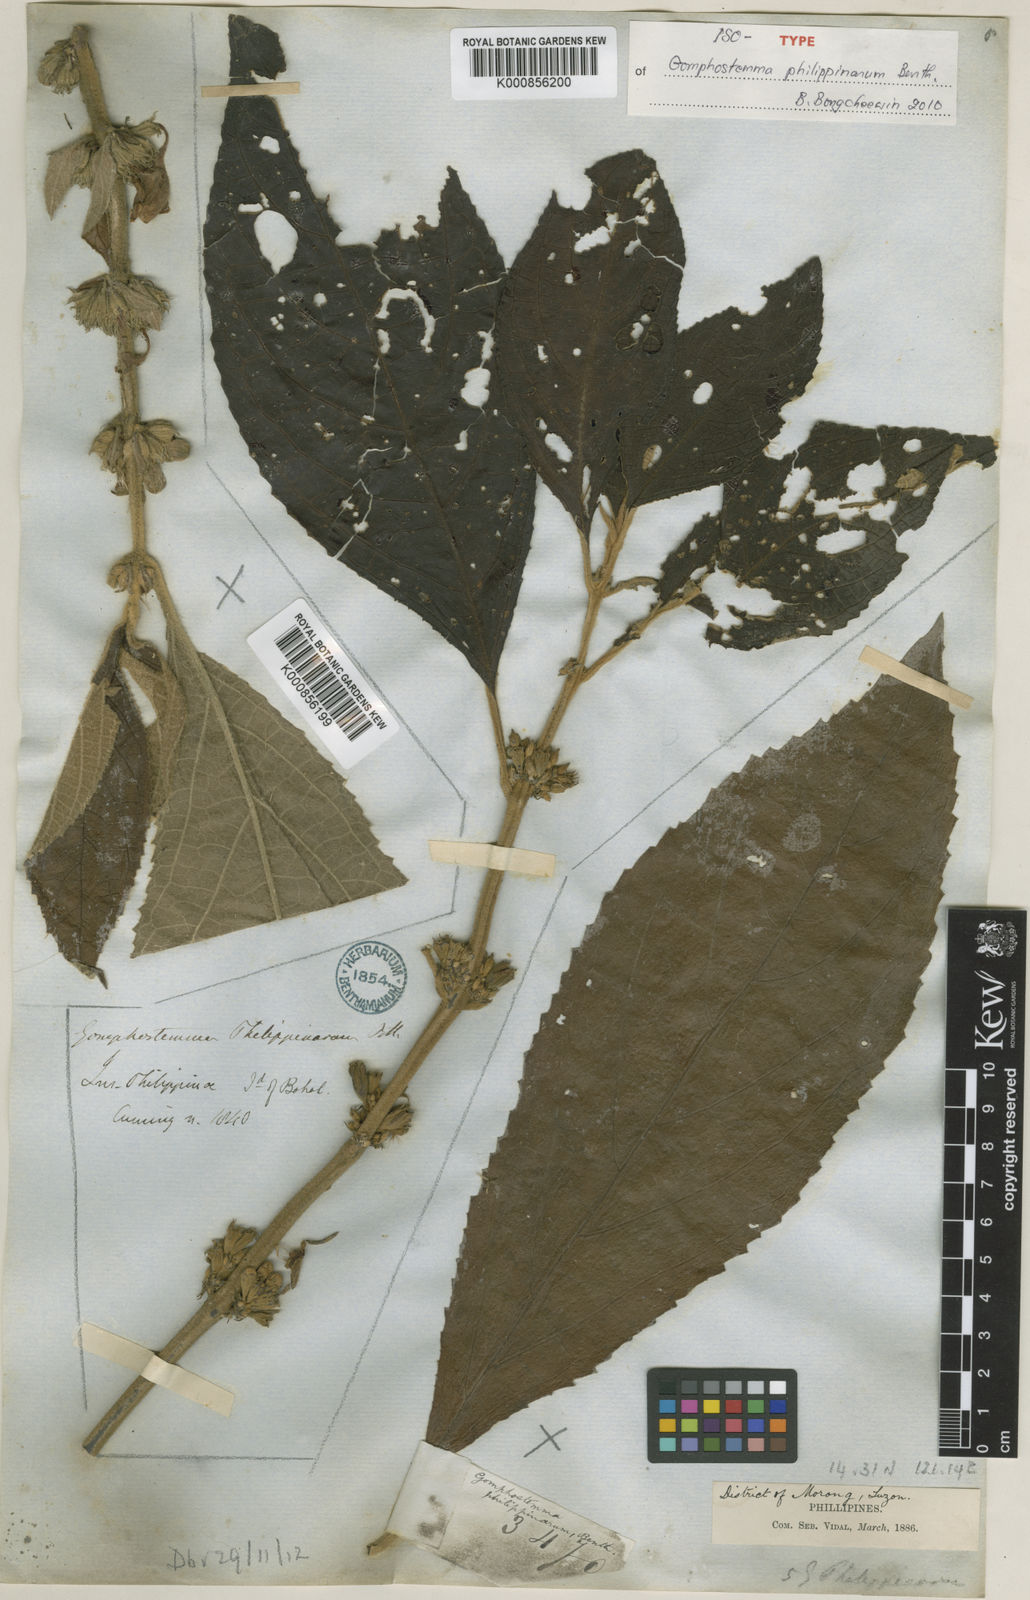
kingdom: Plantae
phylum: Tracheophyta
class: Magnoliopsida
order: Lamiales
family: Lamiaceae
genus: Gomphostemma
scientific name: Gomphostemma javanicum
